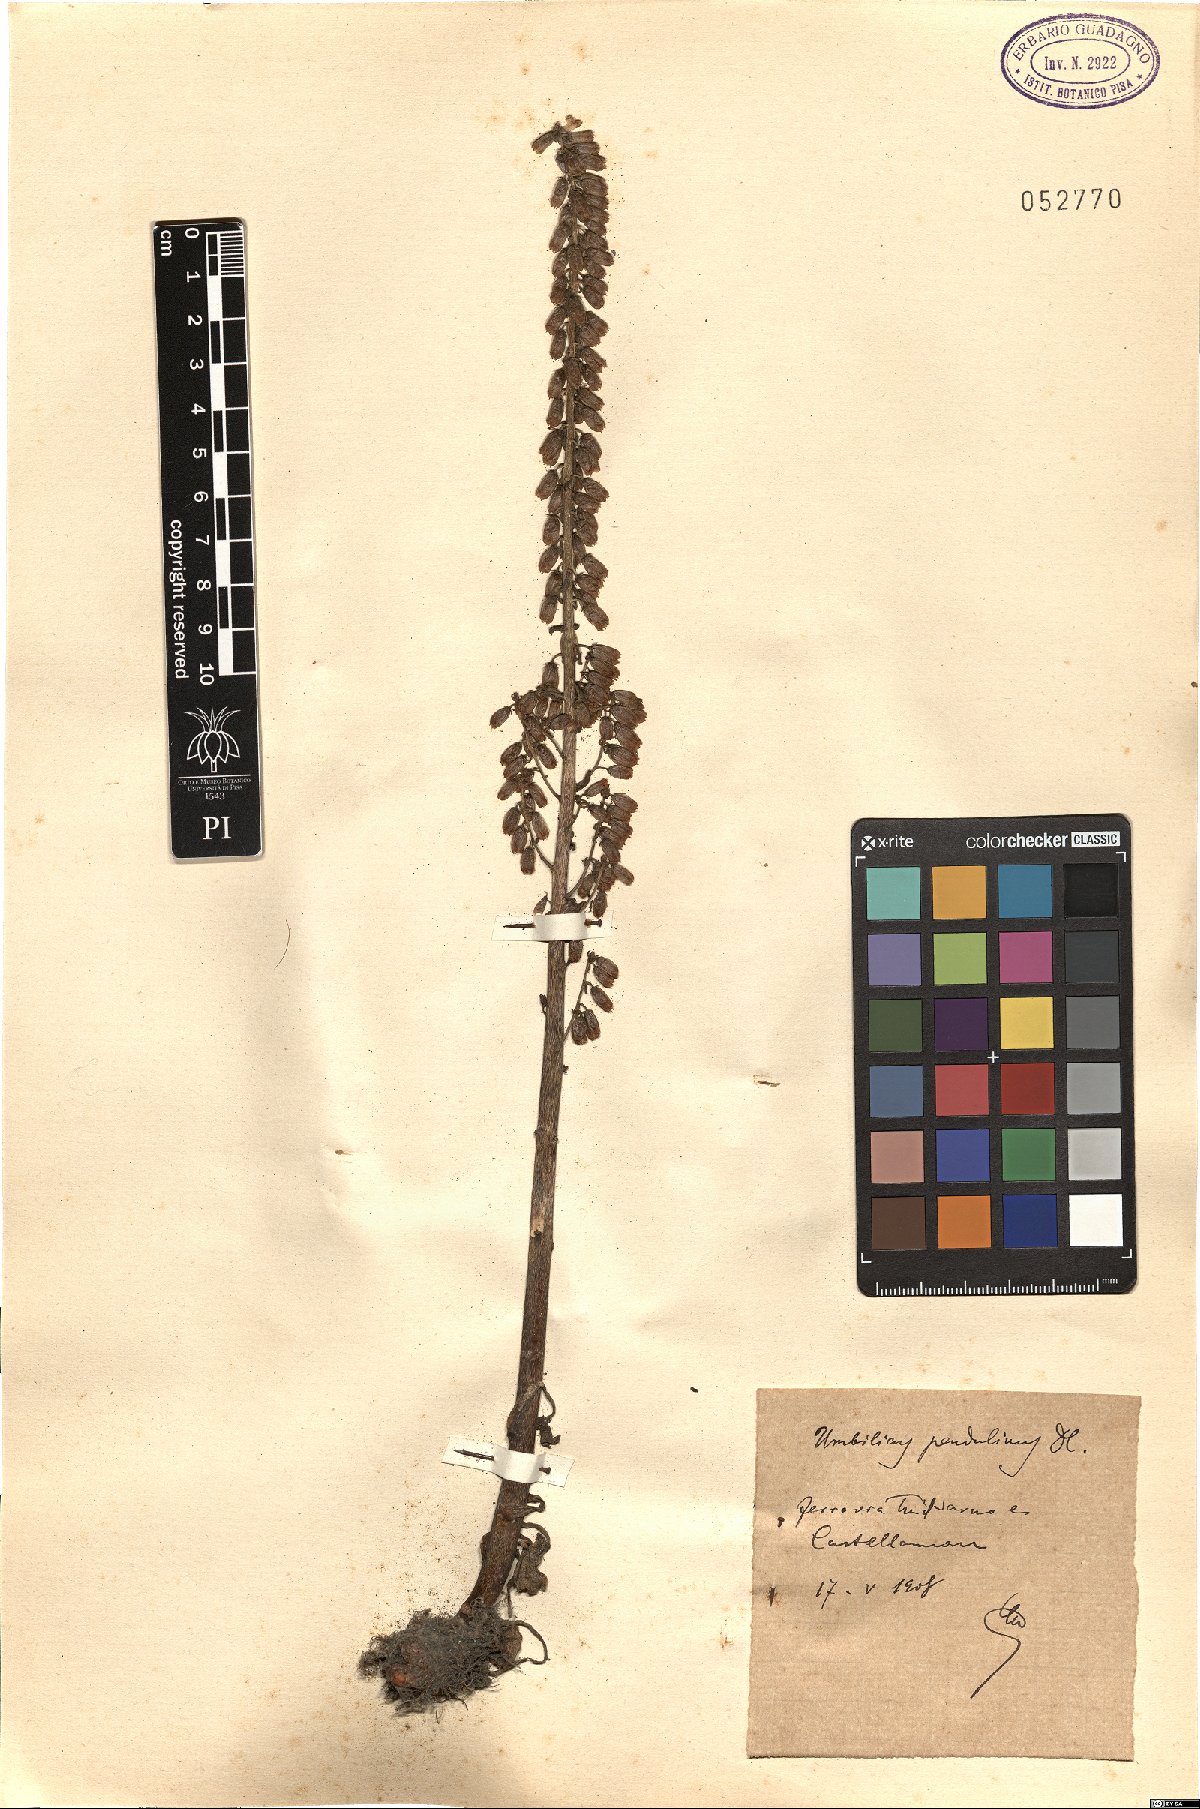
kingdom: Plantae
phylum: Tracheophyta
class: Magnoliopsida
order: Saxifragales
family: Crassulaceae
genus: Umbilicus
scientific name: Umbilicus rupestris
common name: Navelwort
